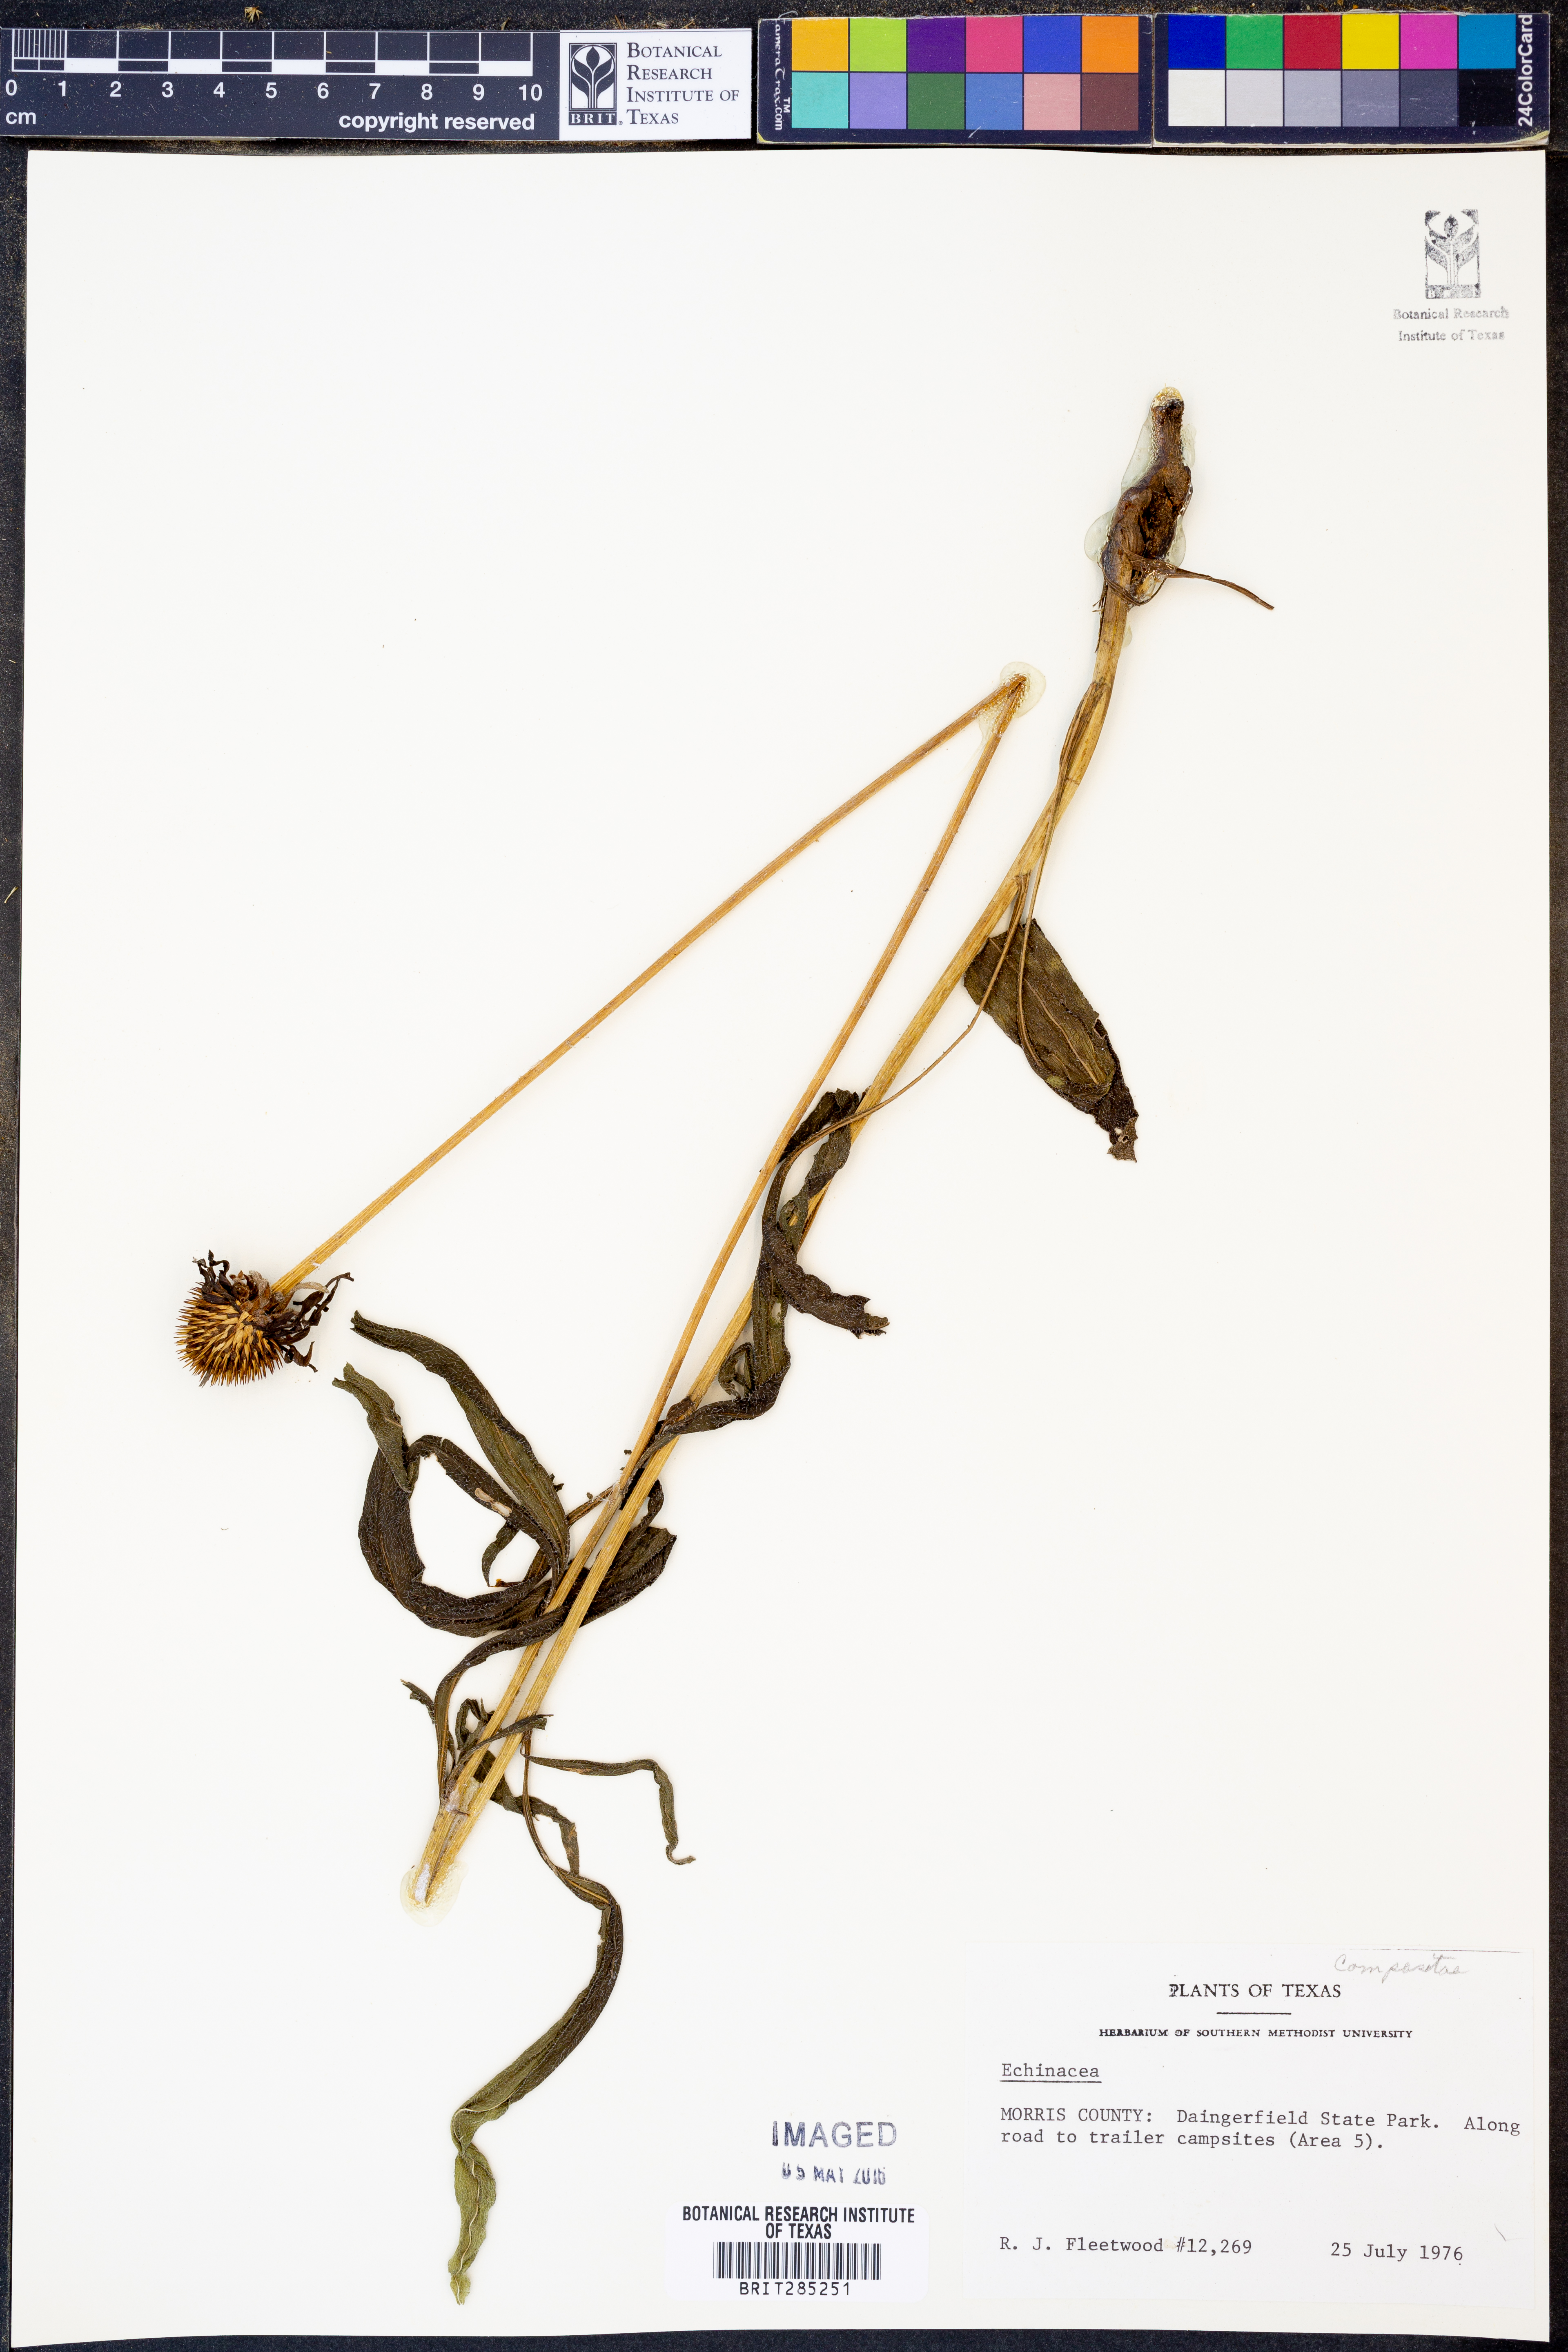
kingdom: Plantae
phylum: Tracheophyta
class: Magnoliopsida
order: Asterales
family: Asteraceae
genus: Echinacea
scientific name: Echinacea
